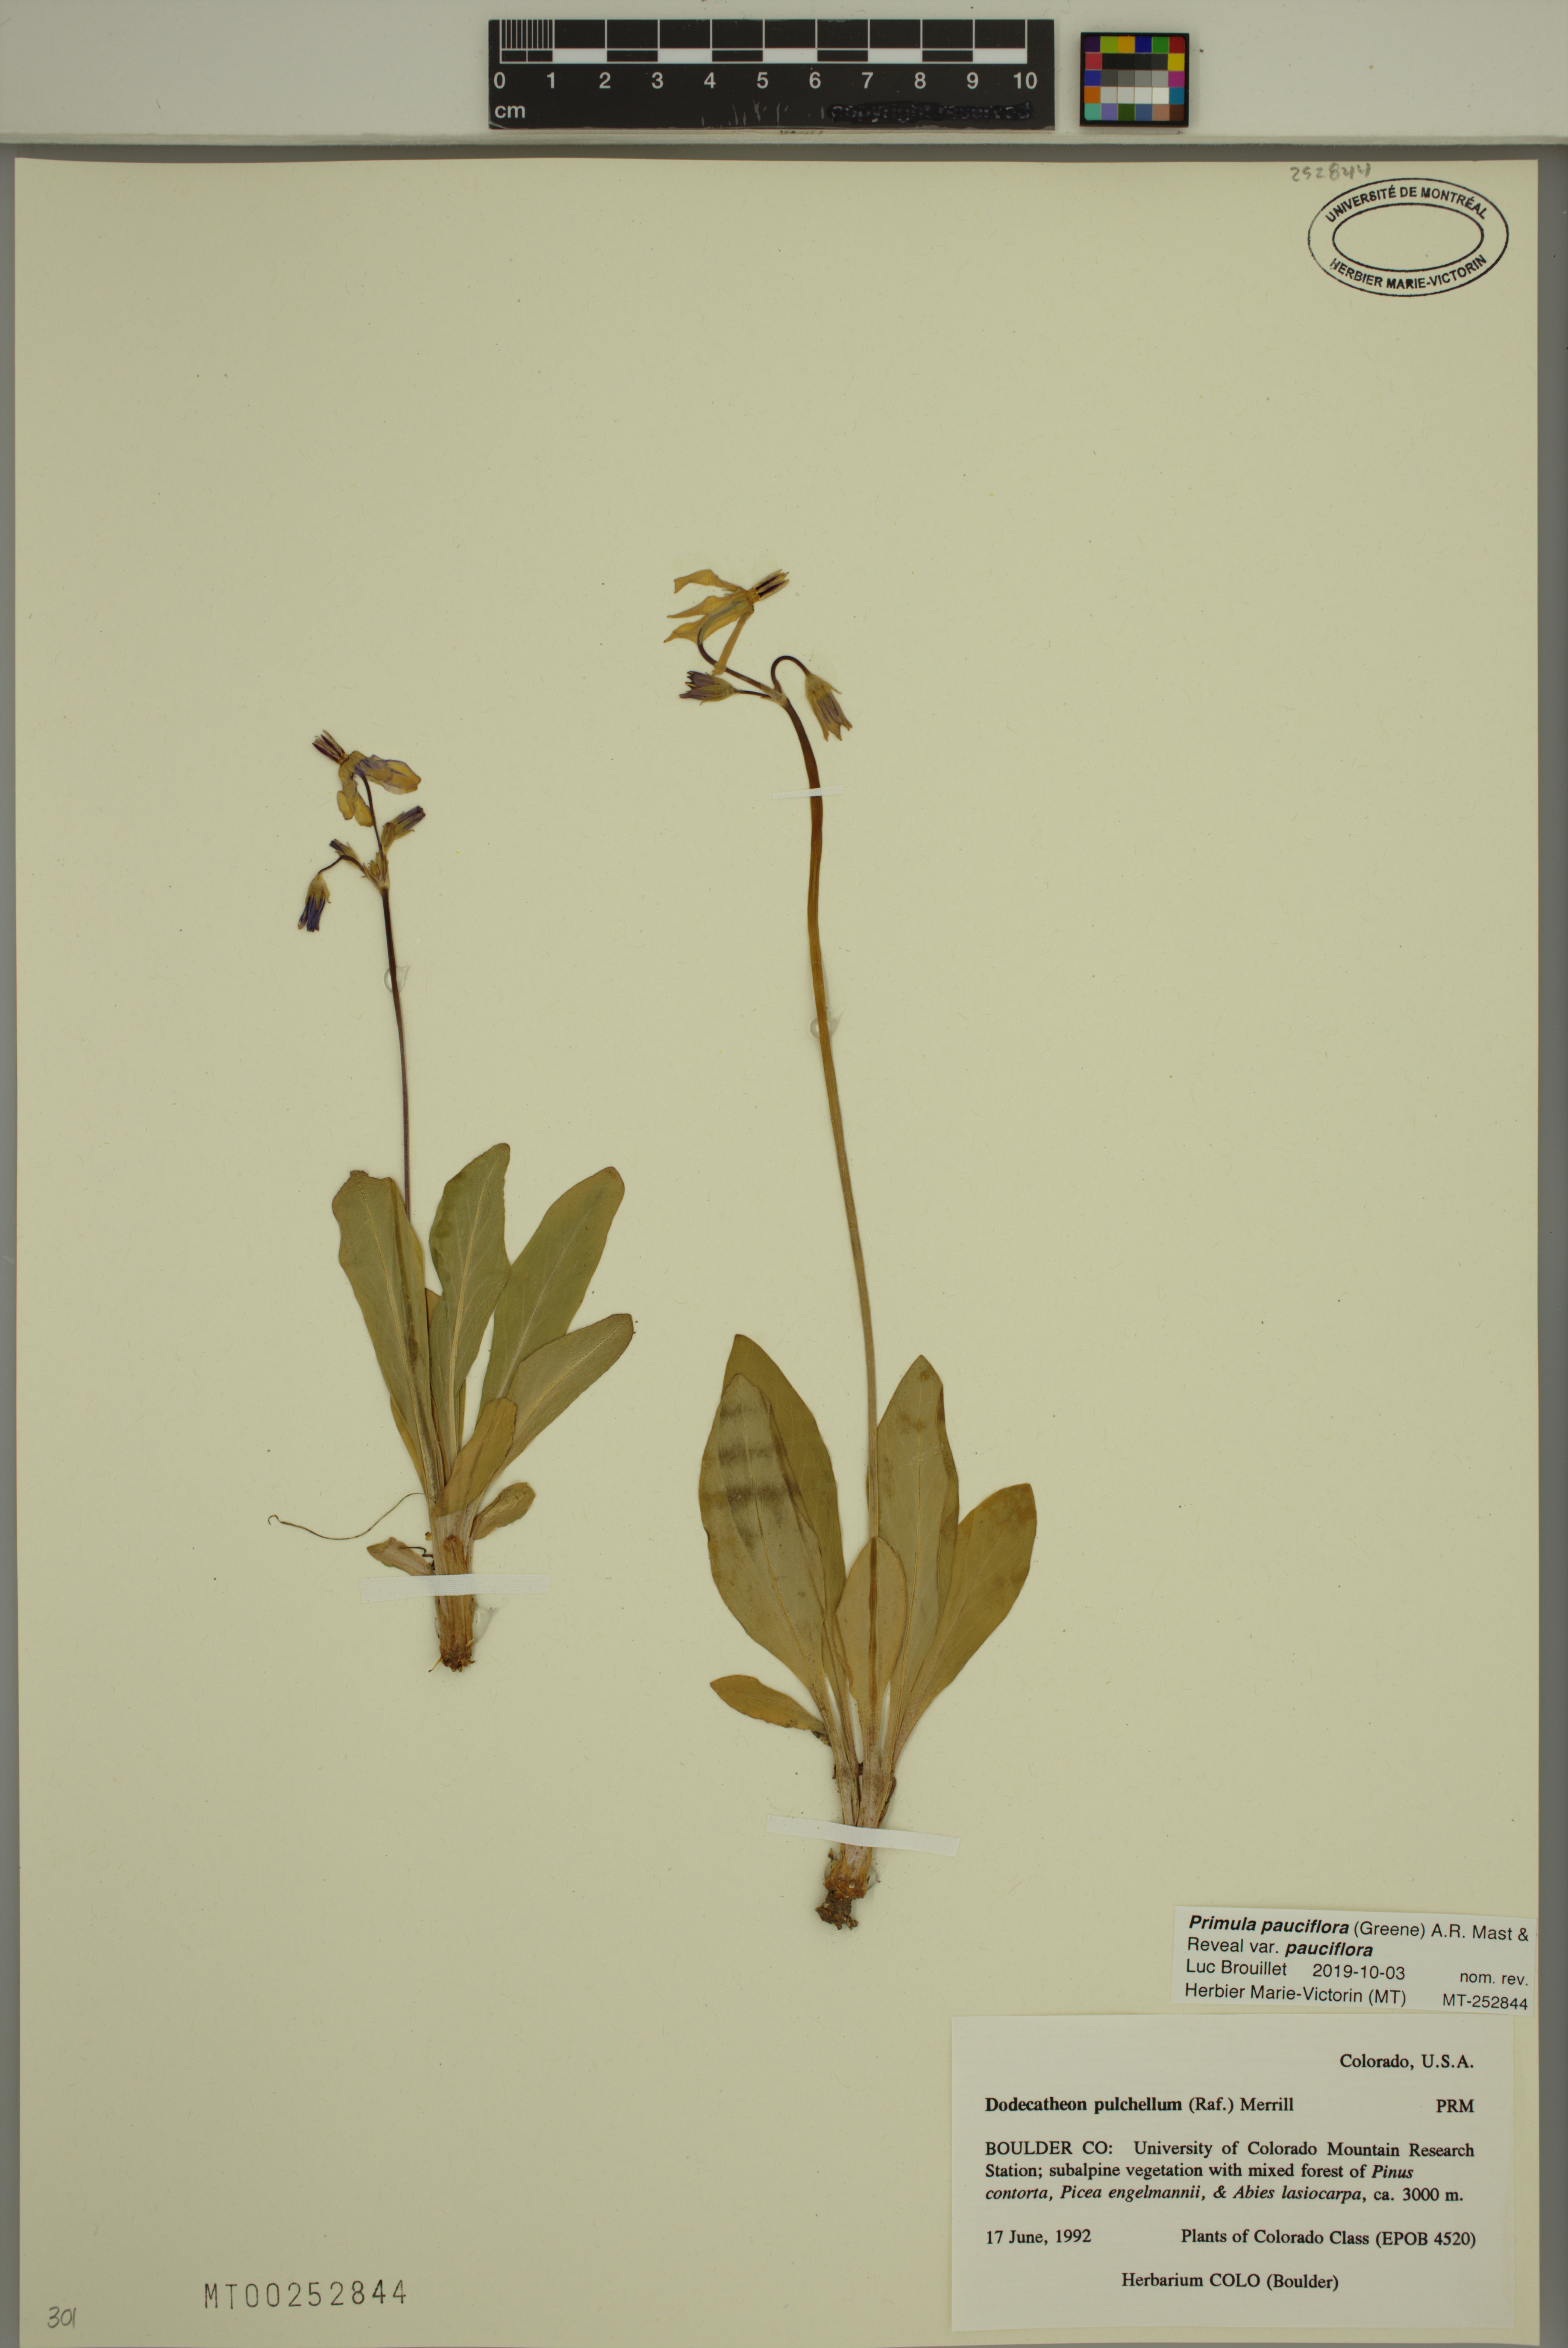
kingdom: Plantae
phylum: Tracheophyta
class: Magnoliopsida
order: Ericales
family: Primulaceae
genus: Dodecatheon
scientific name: Dodecatheon pulchellum
